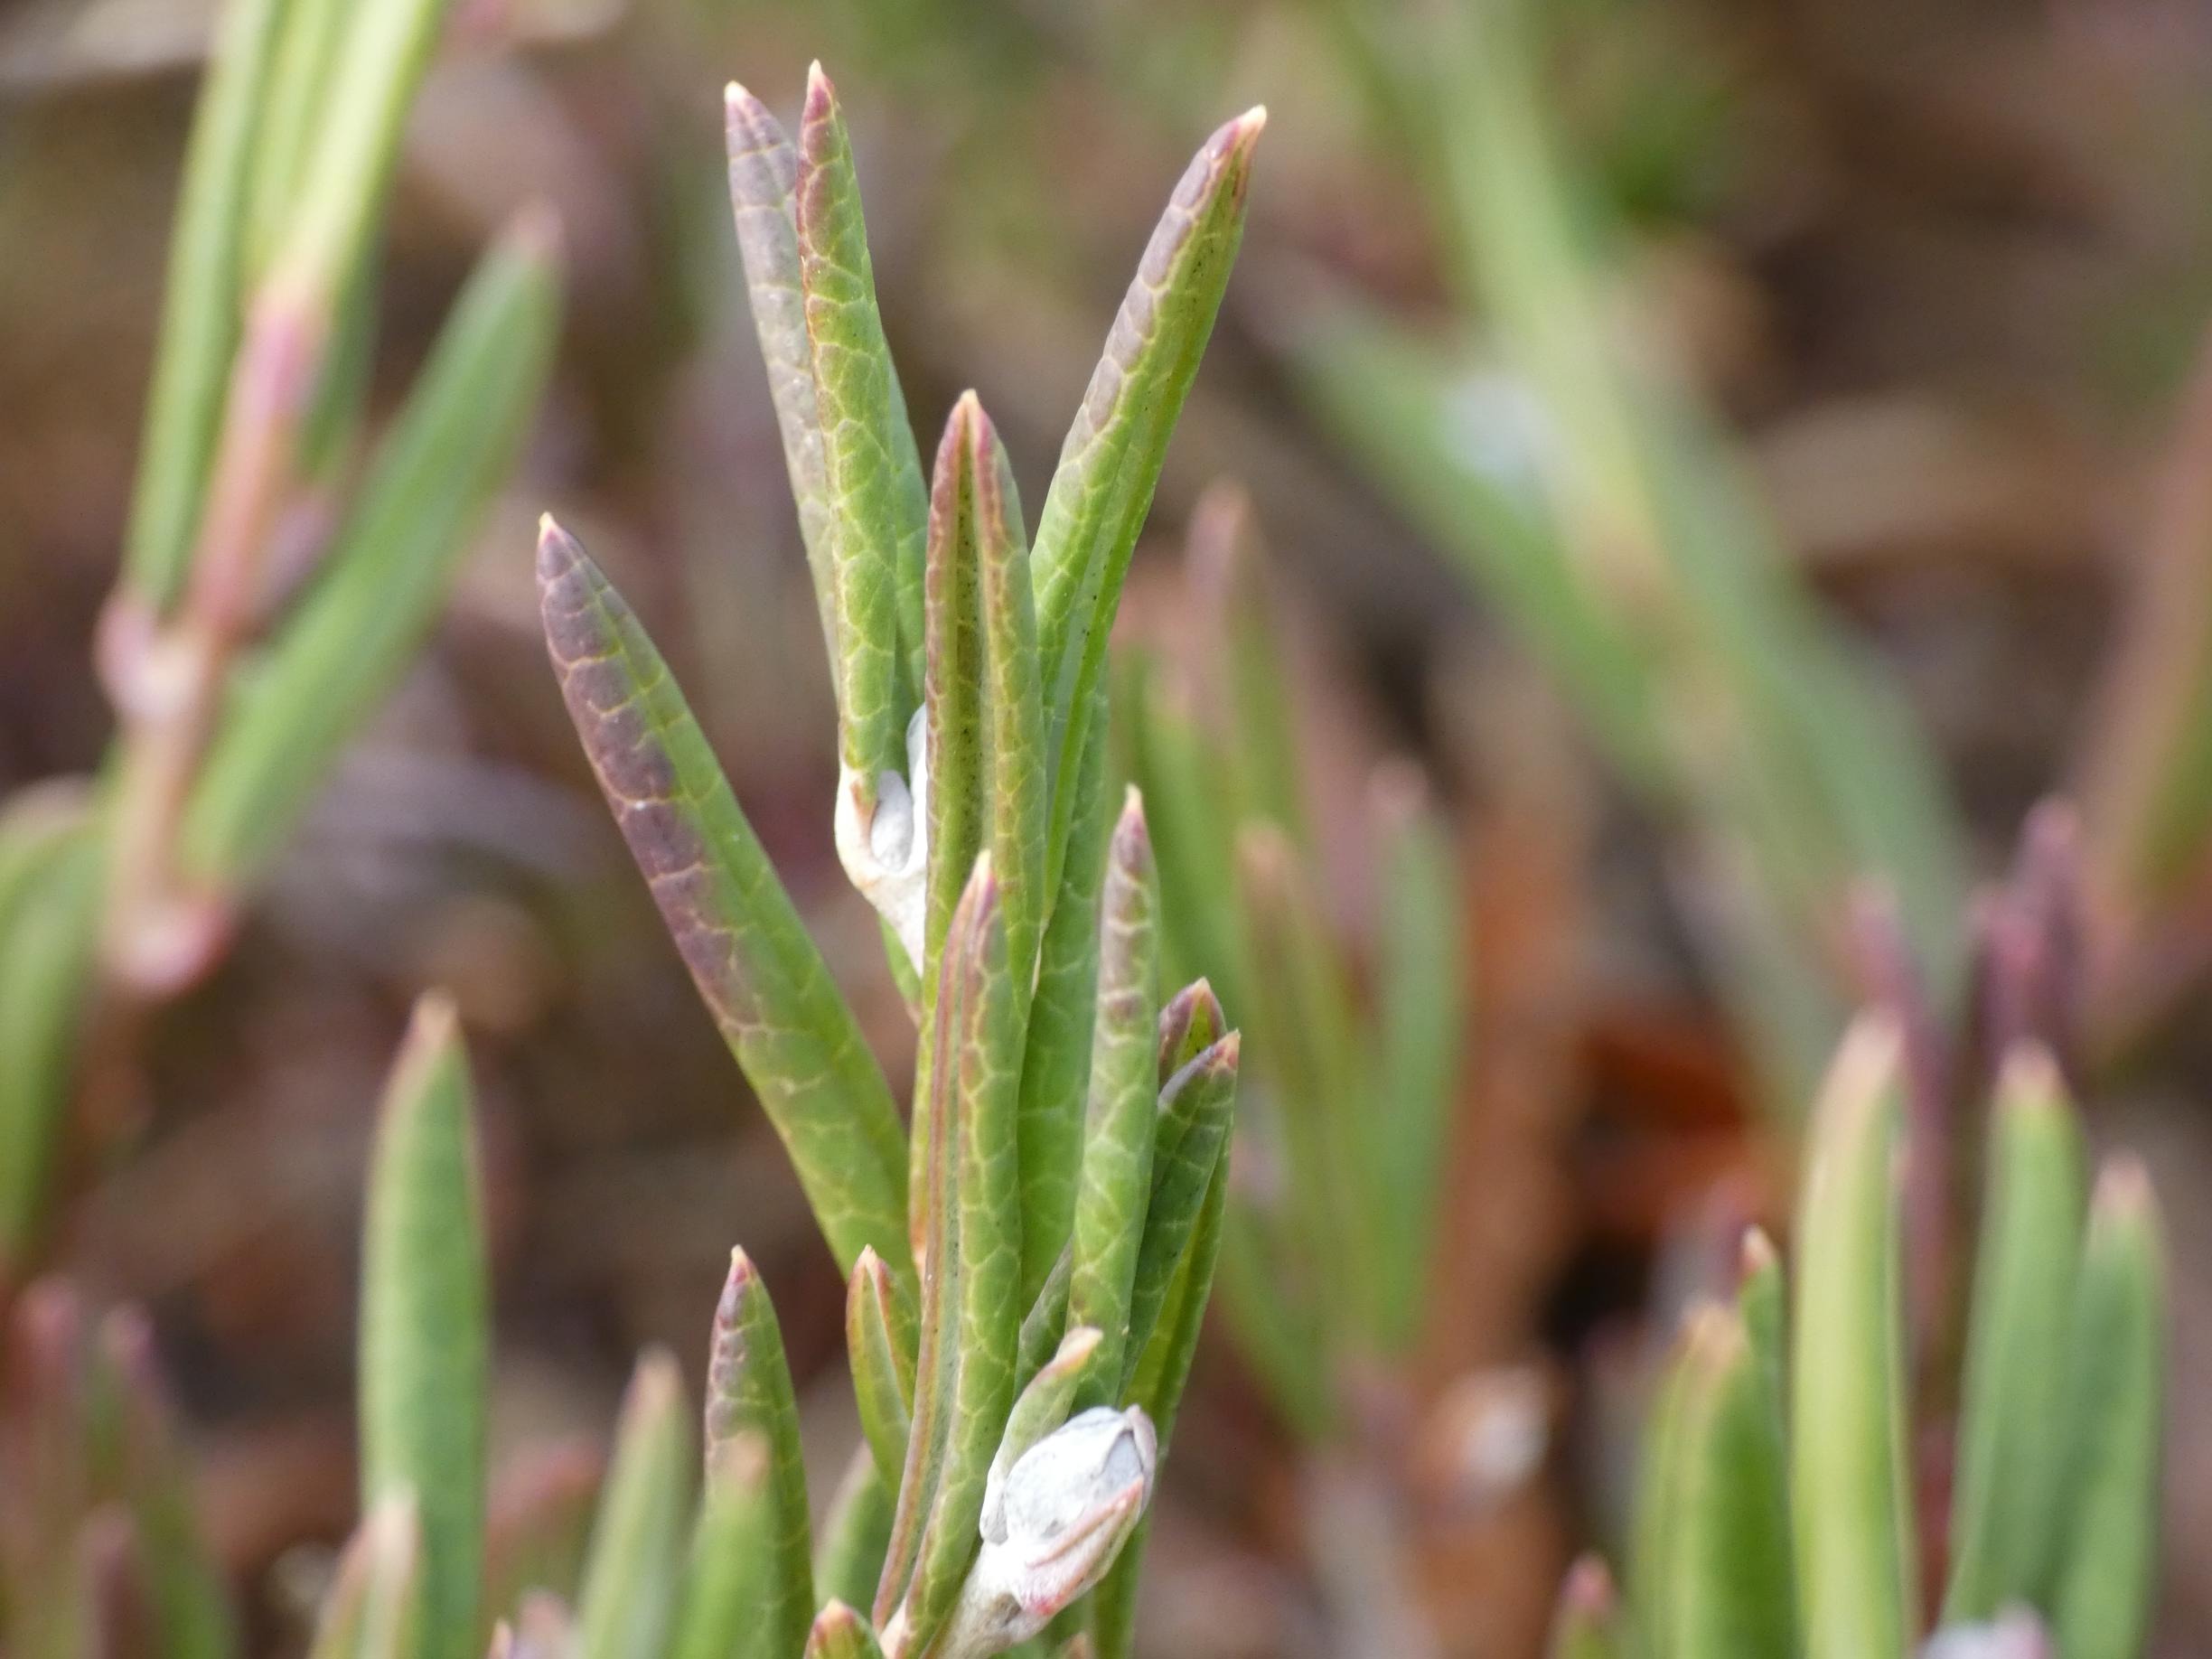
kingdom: Plantae
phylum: Tracheophyta
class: Magnoliopsida
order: Ericales
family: Ericaceae
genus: Andromeda
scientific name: Andromeda polifolia
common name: Rosmarinlyng
